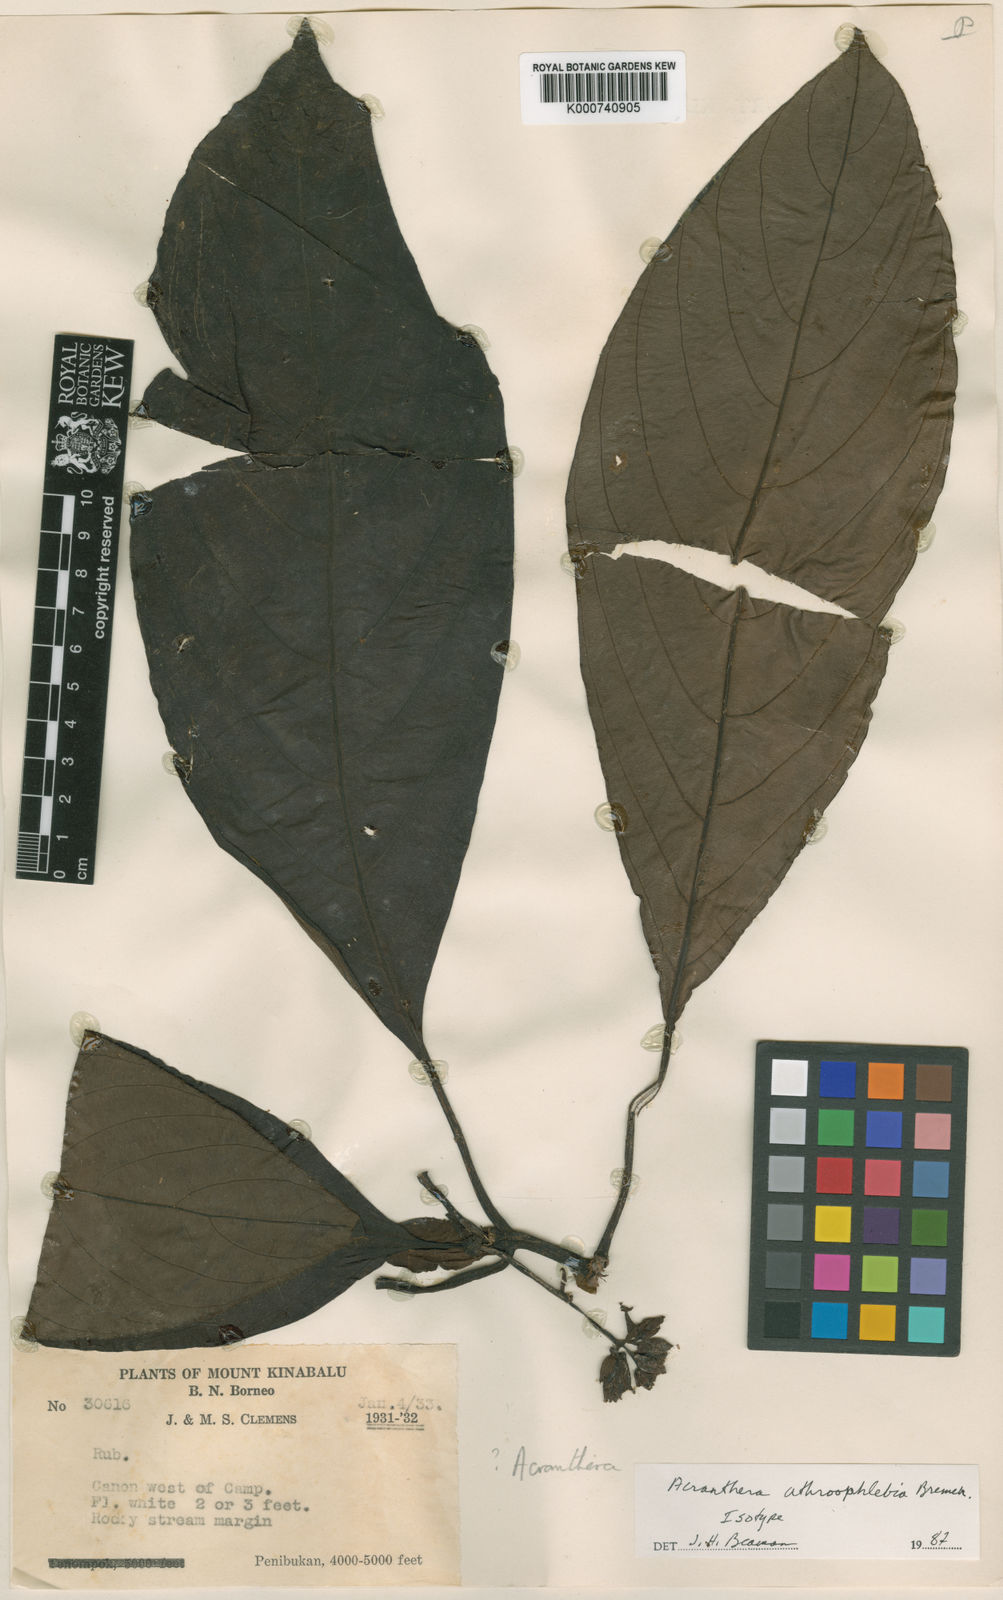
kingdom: Plantae
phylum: Tracheophyta
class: Magnoliopsida
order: Gentianales
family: Rubiaceae
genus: Acranthera
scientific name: Acranthera athroophlebia
